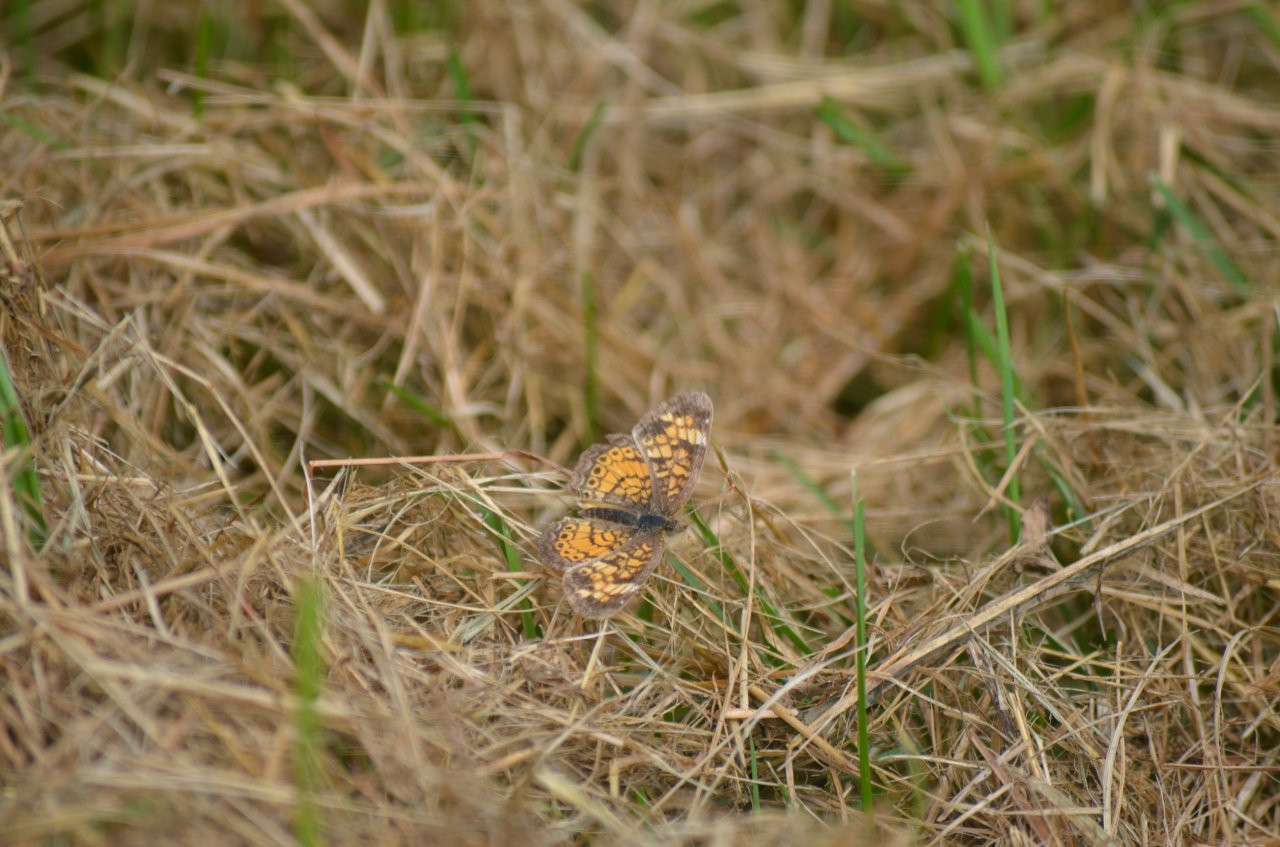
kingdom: Animalia
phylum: Arthropoda
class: Insecta
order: Lepidoptera
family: Nymphalidae
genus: Phyciodes
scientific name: Phyciodes tharos
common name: Northern Crescent
